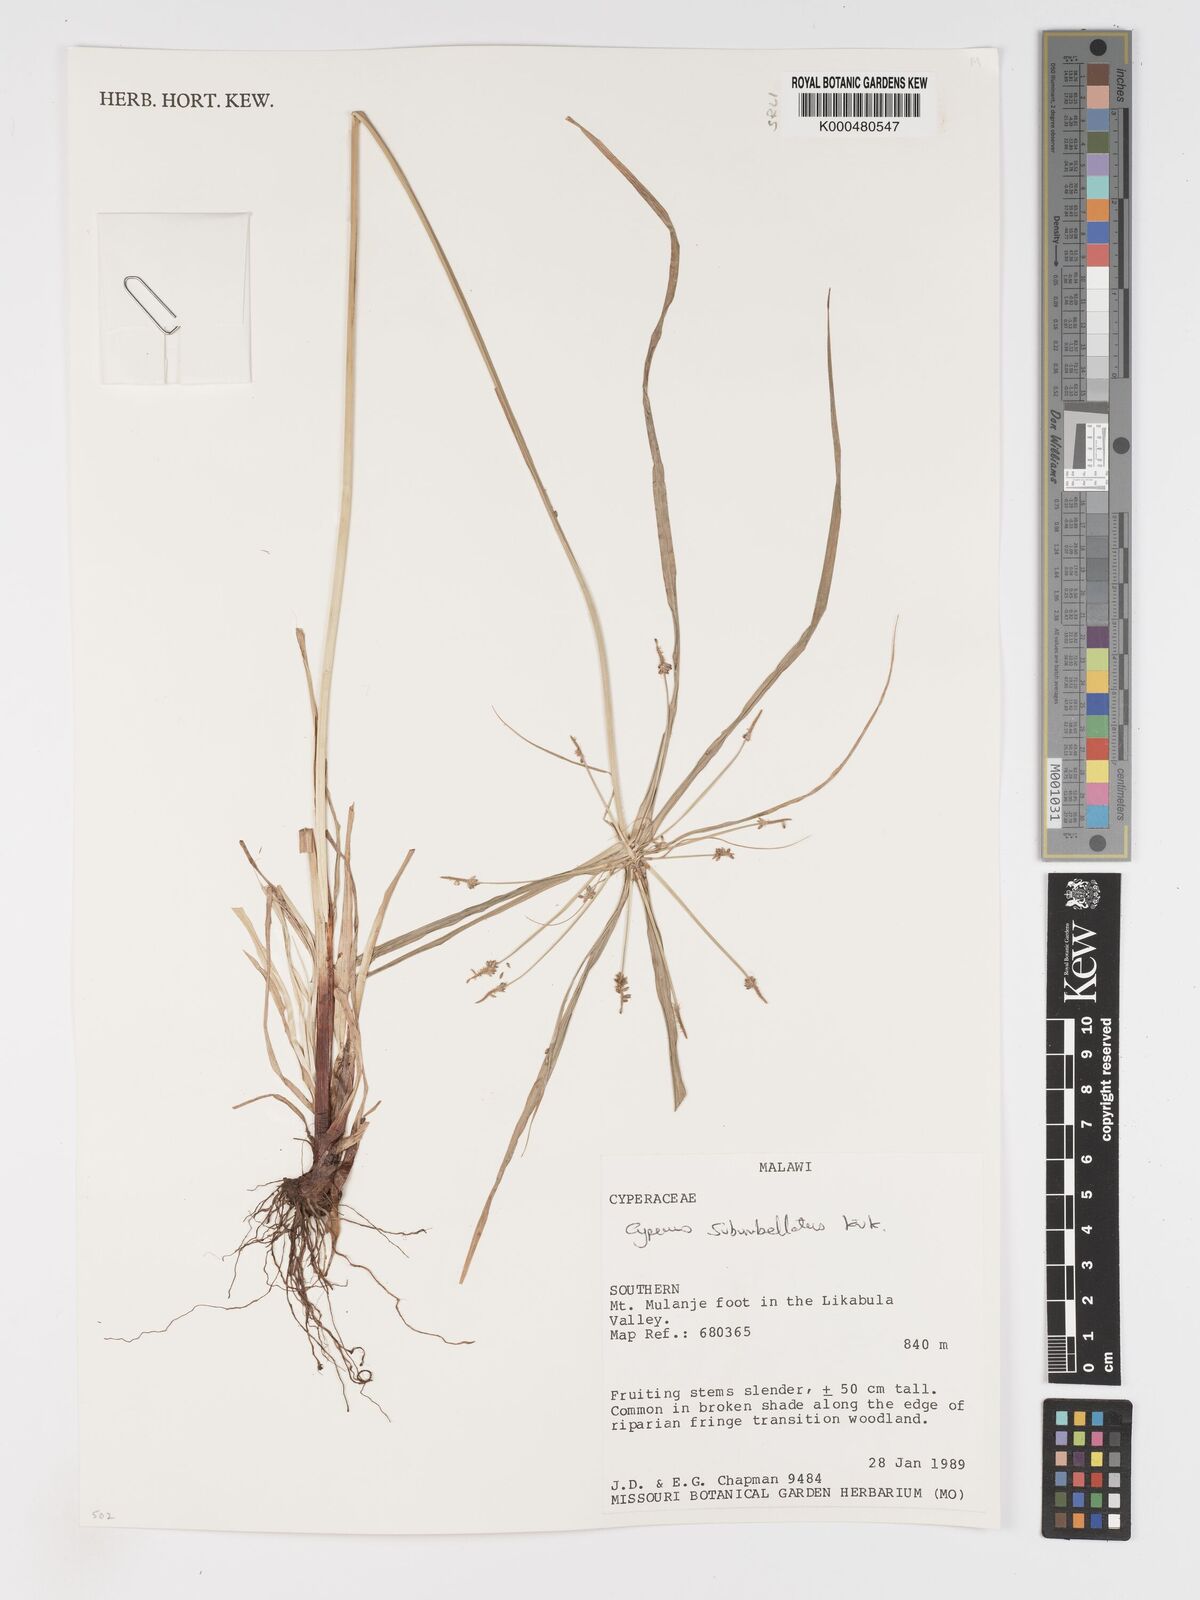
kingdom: Plantae
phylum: Tracheophyta
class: Liliopsida
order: Poales
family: Cyperaceae
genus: Cyperus
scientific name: Cyperus cyperoides
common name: Pacific island flat sedge
